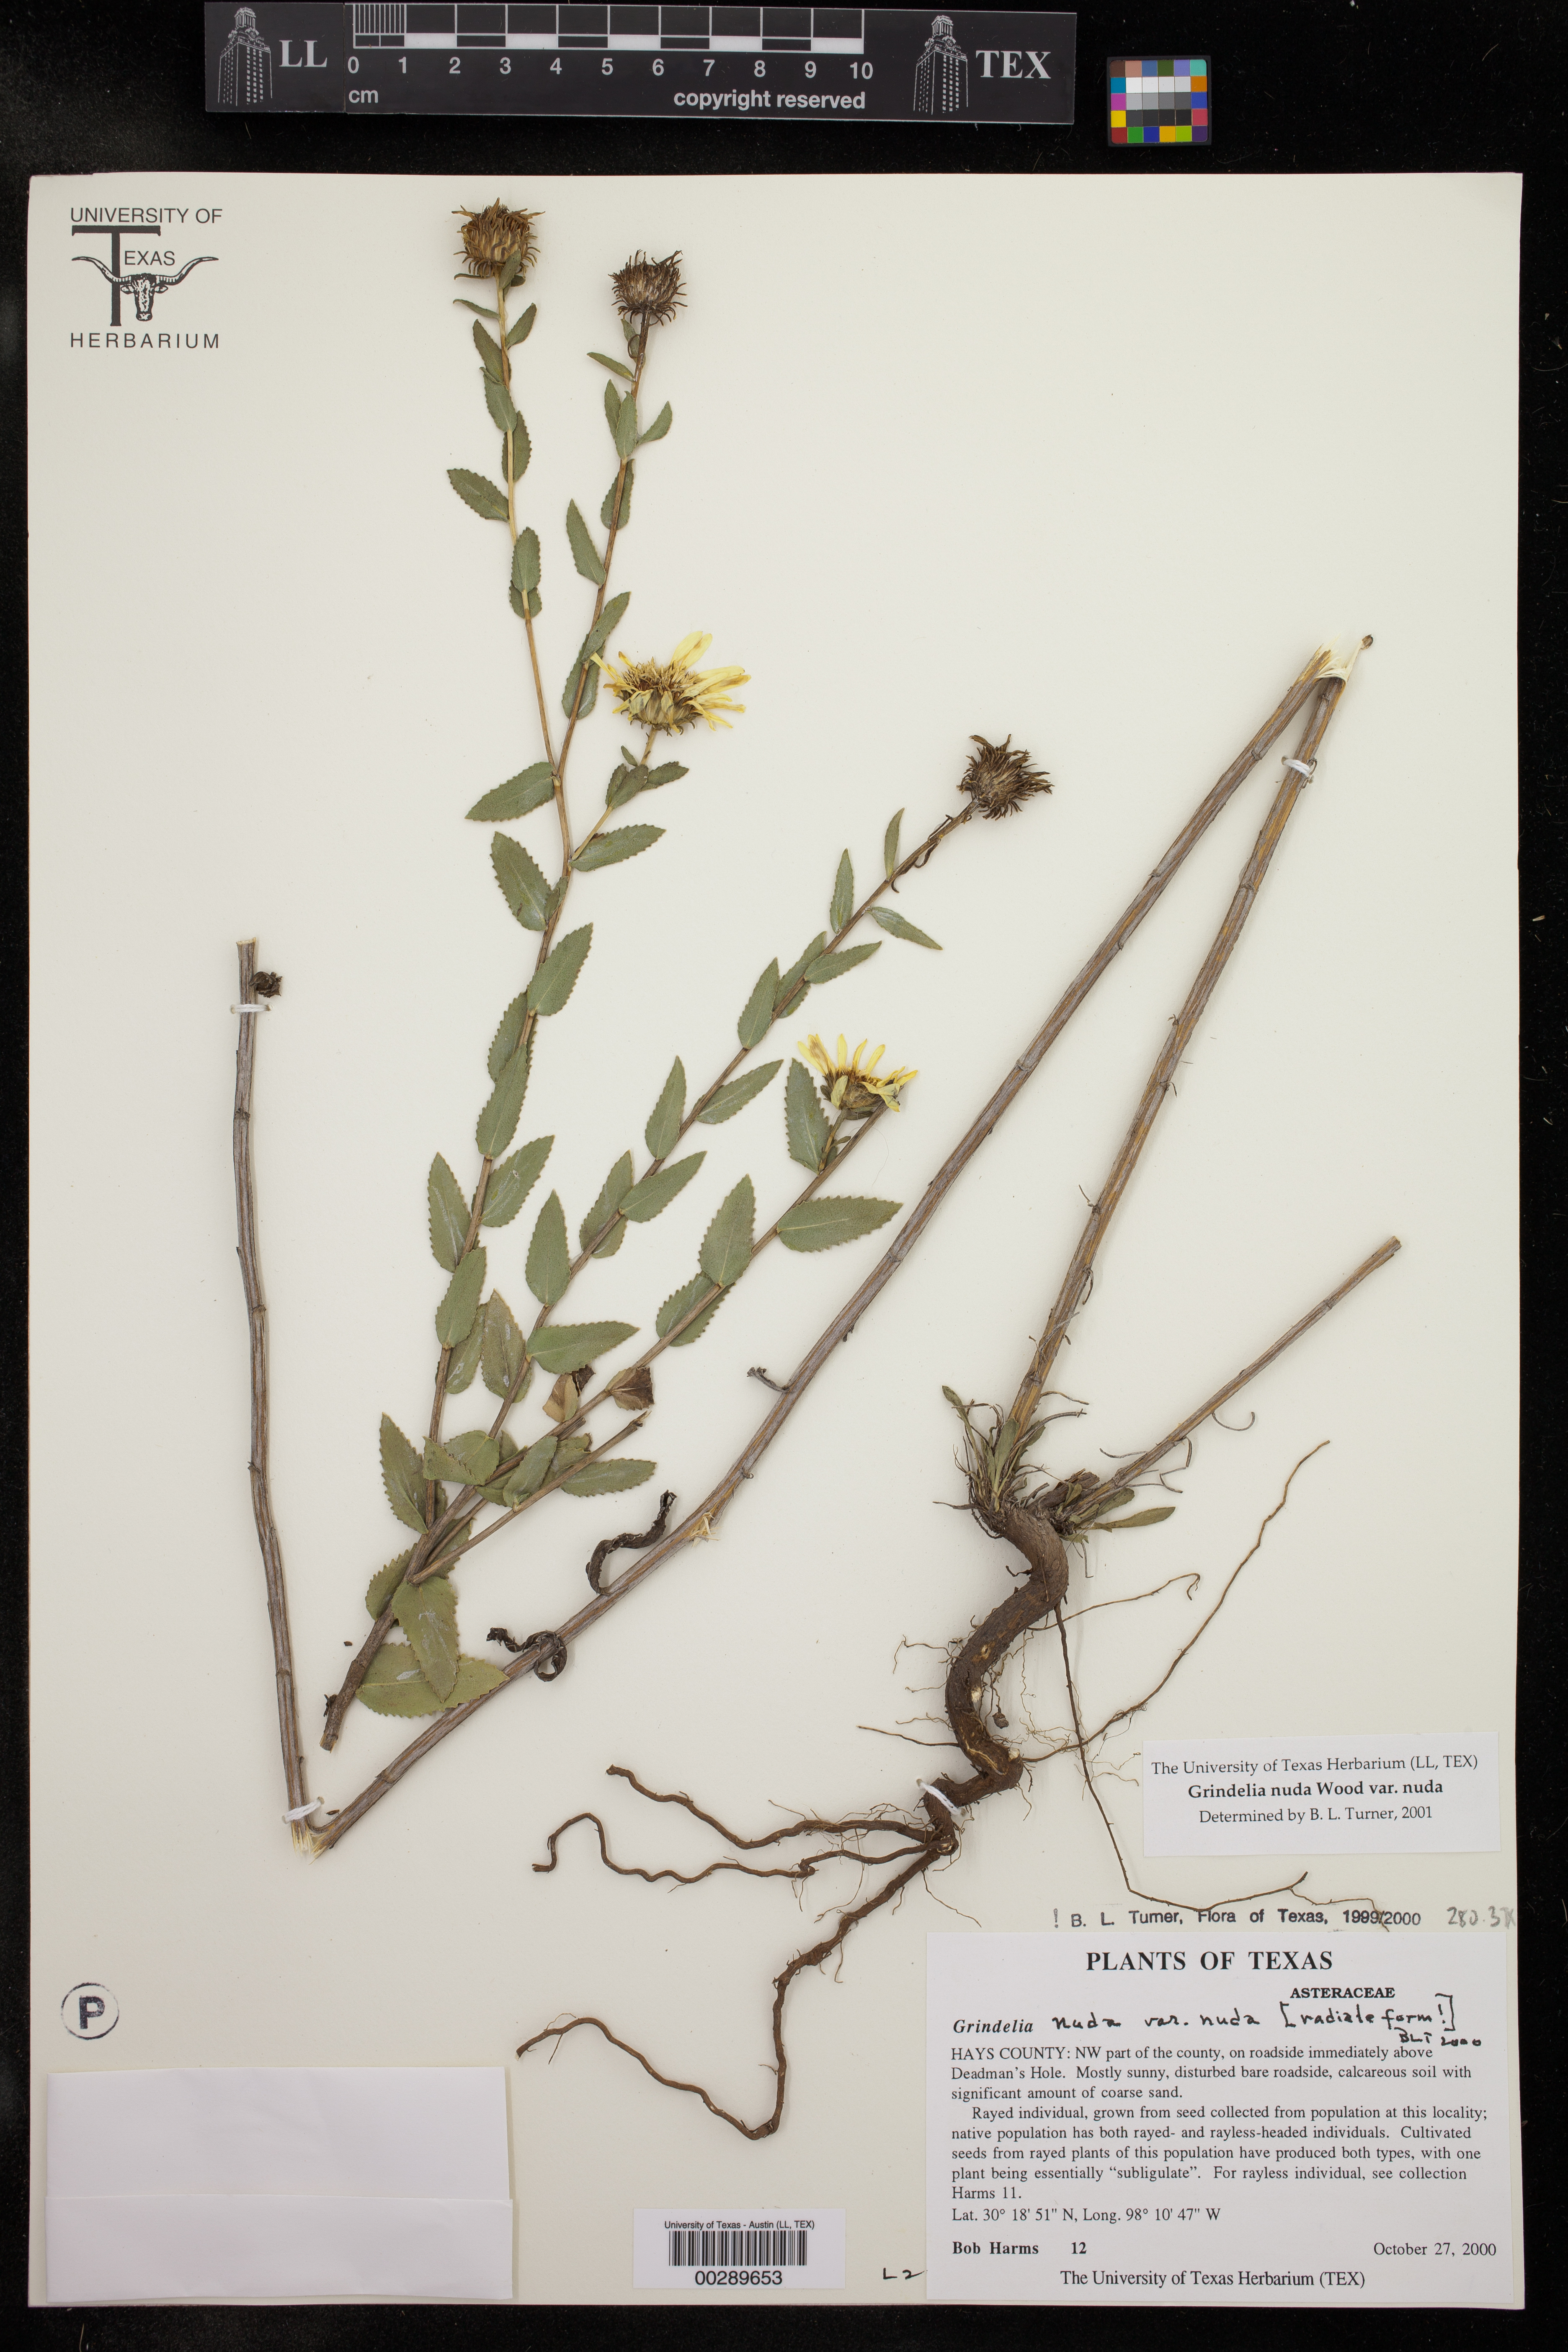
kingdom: Plantae
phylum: Tracheophyta
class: Magnoliopsida
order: Asterales
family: Asteraceae
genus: Grindelia
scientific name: Grindelia nuda
